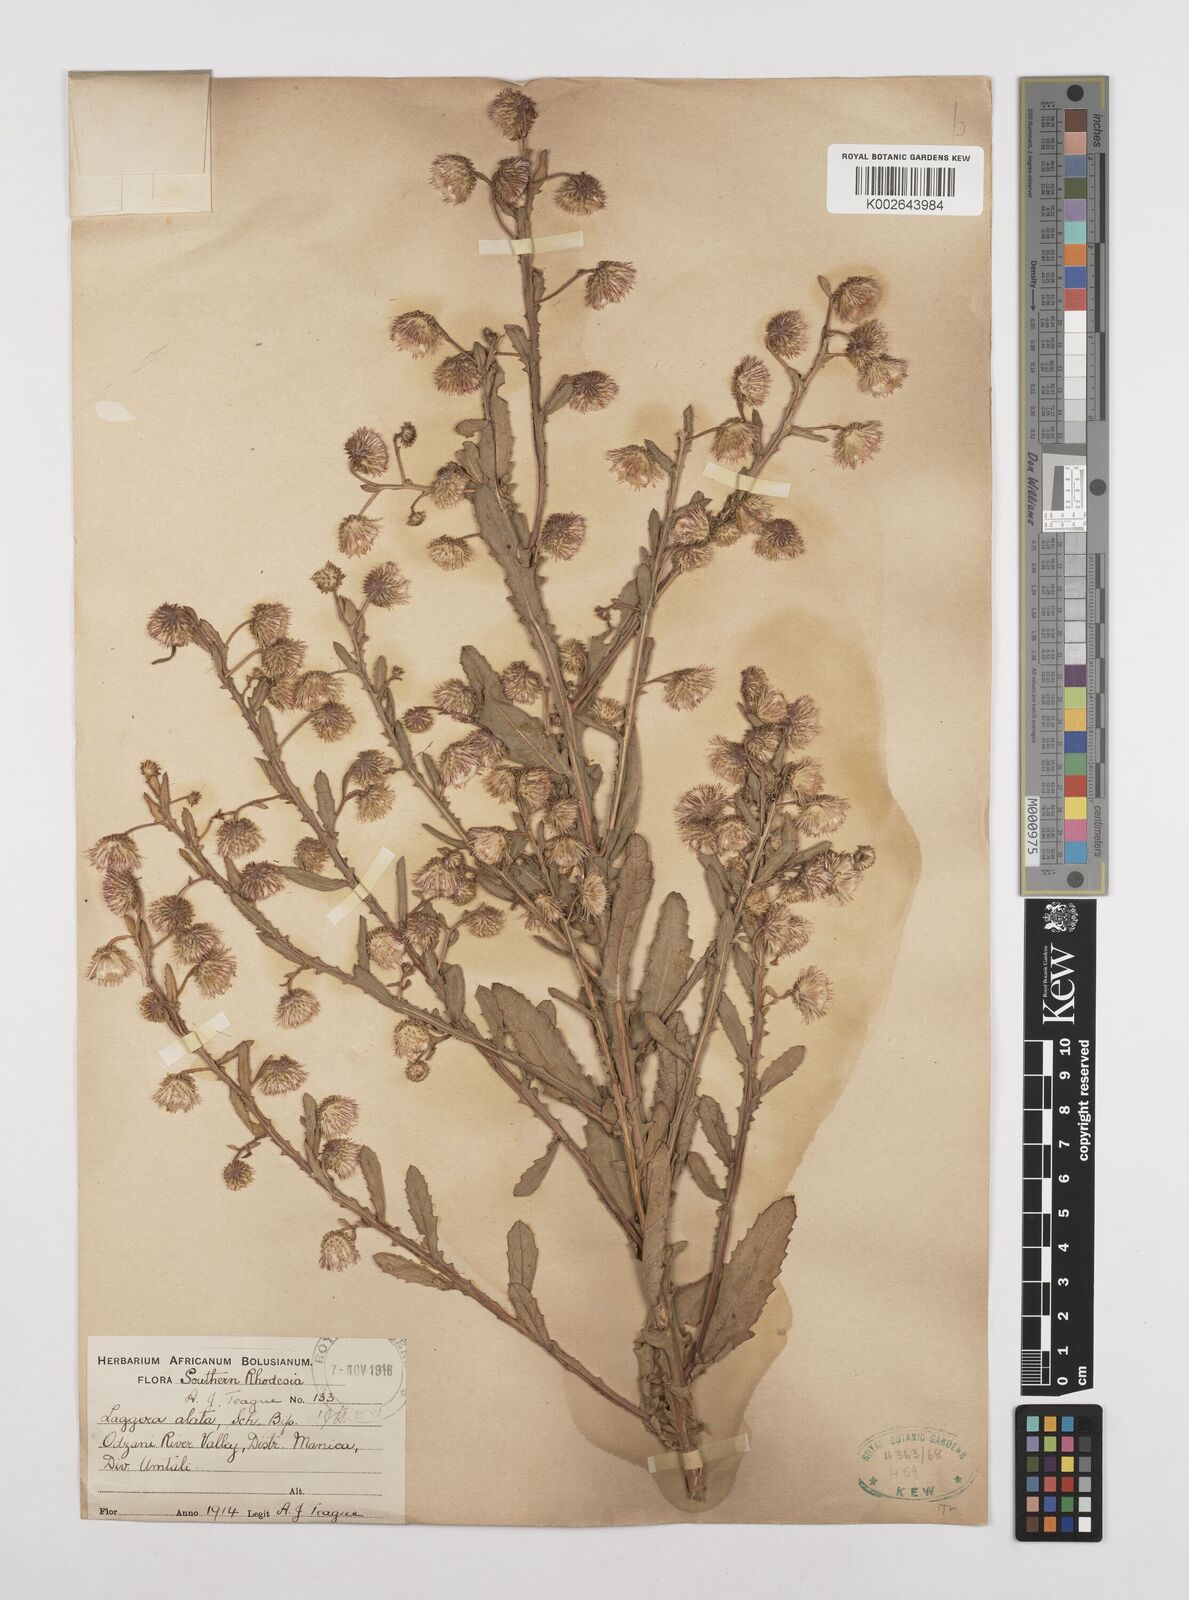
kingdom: Plantae
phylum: Tracheophyta
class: Magnoliopsida
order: Asterales
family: Asteraceae
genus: Laggera
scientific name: Laggera crispata
